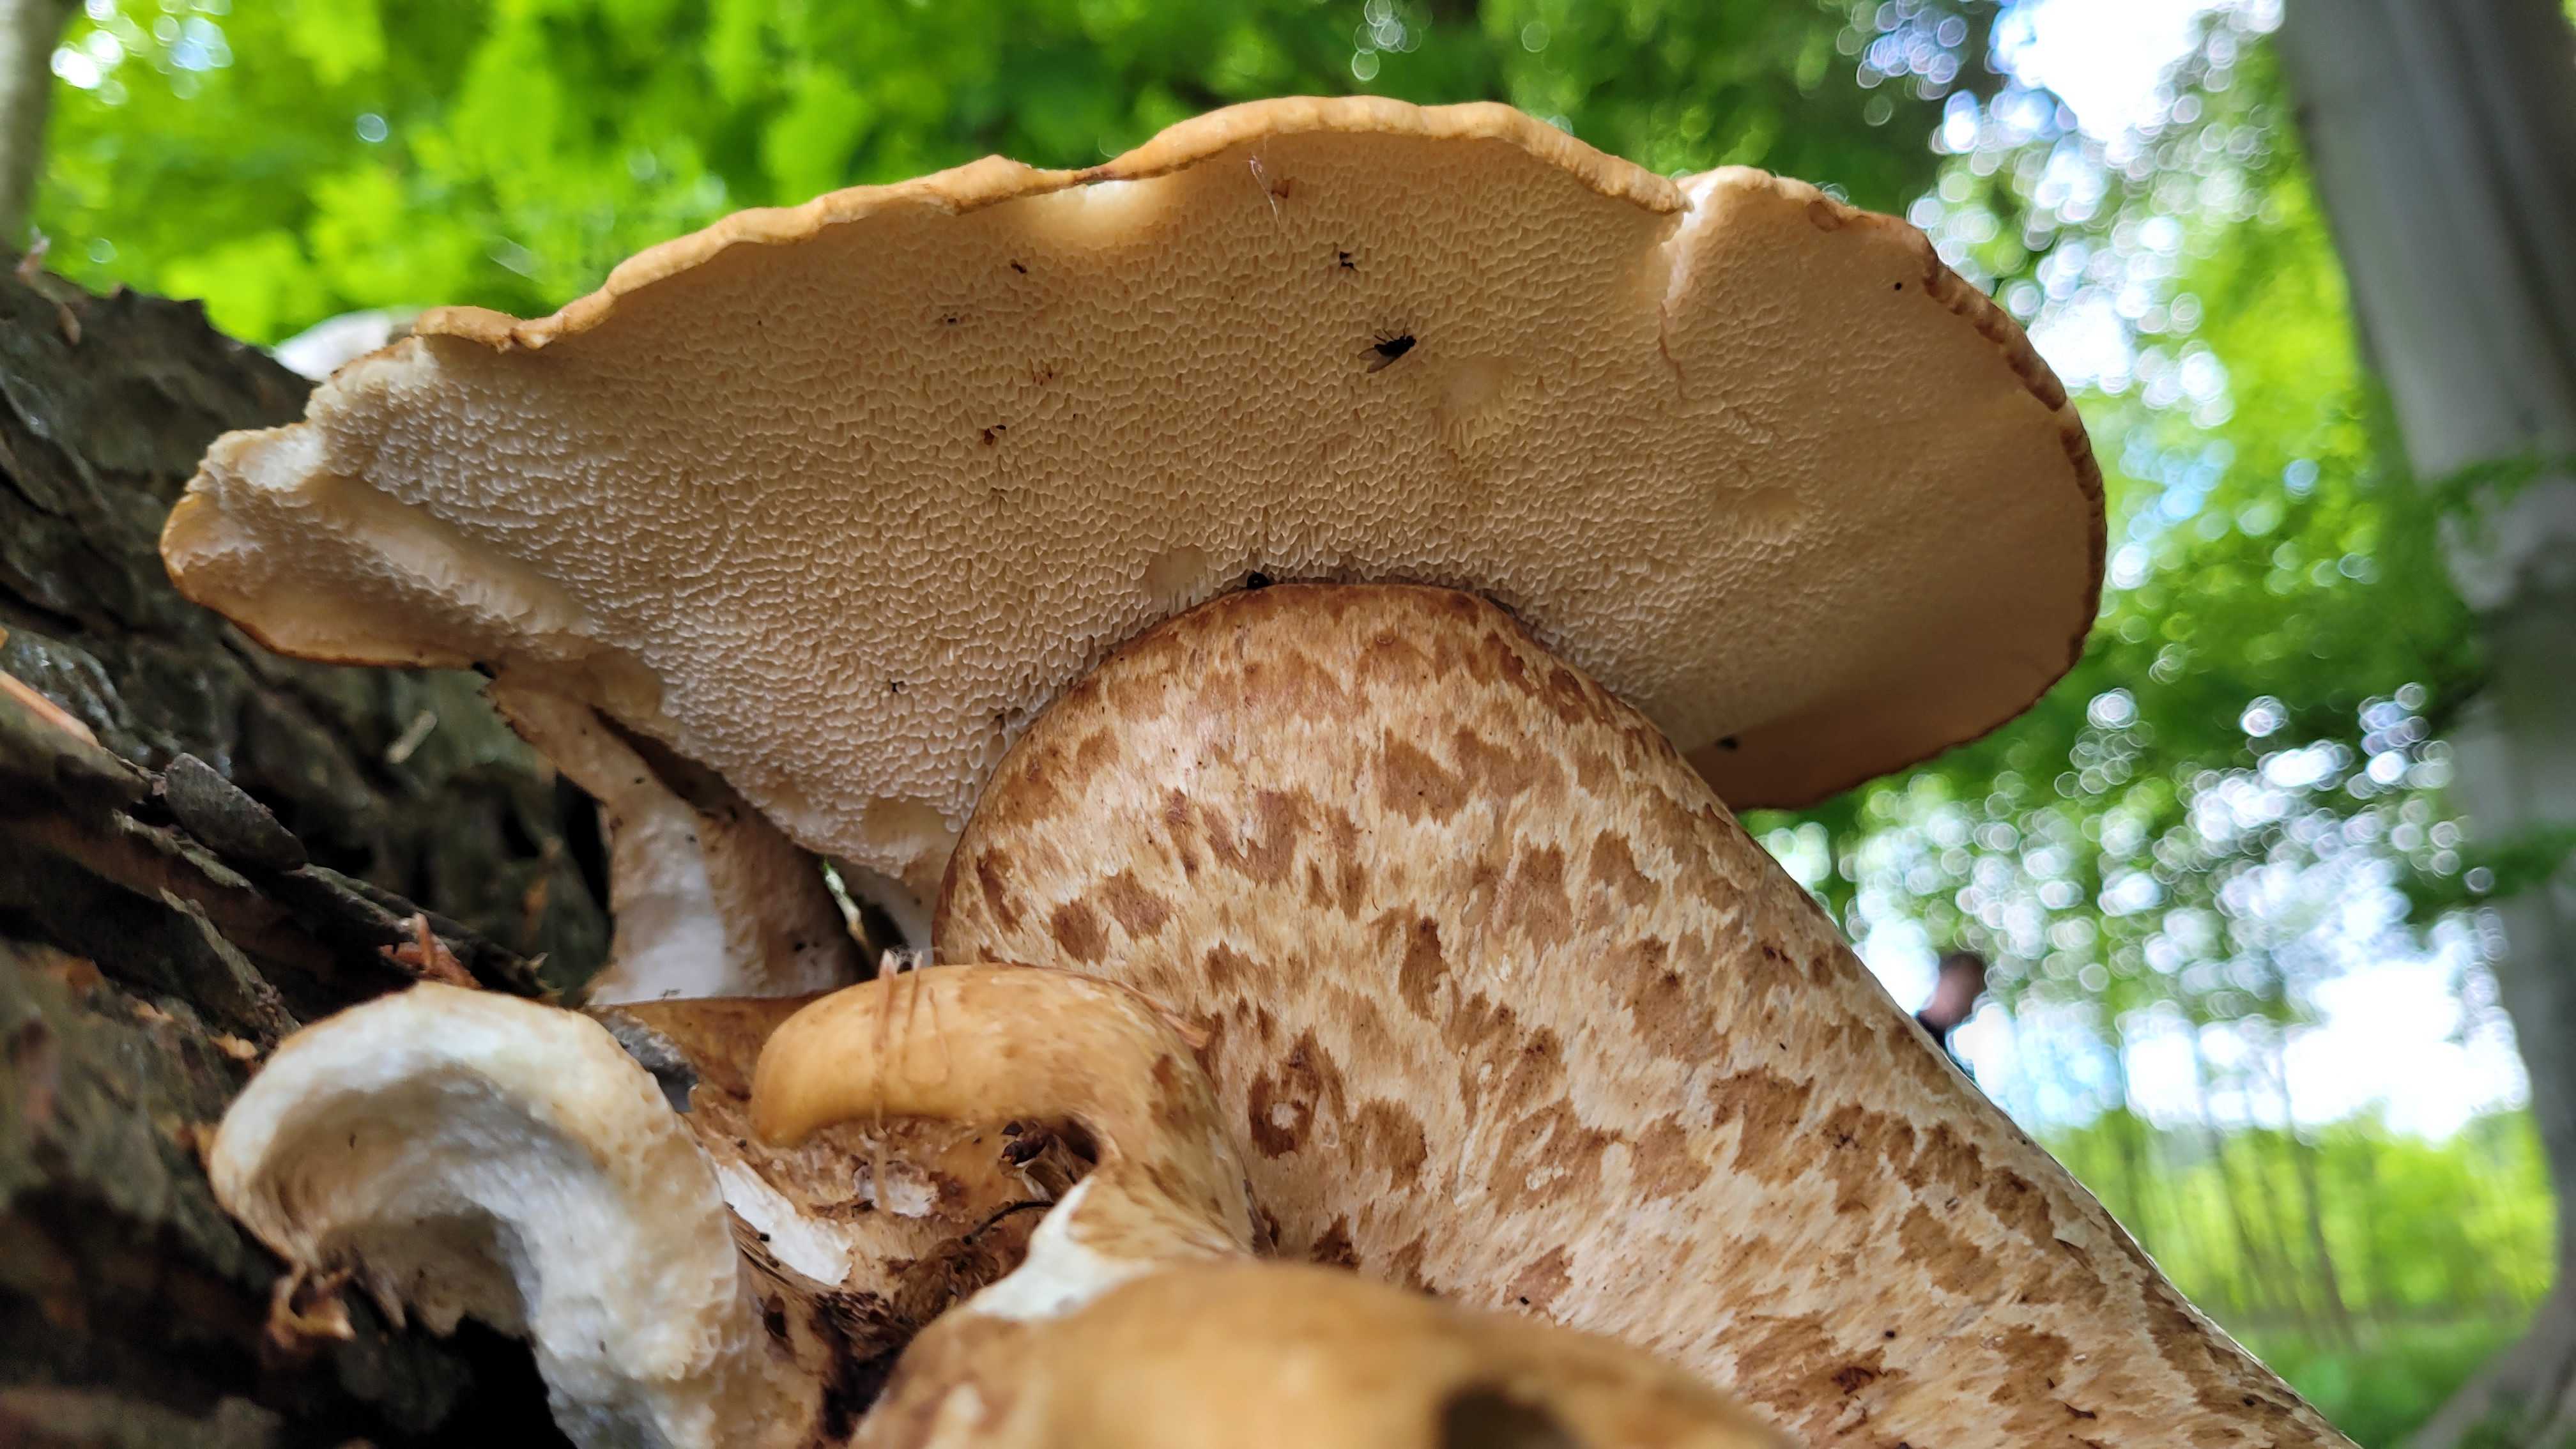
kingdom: Fungi
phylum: Basidiomycota
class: Agaricomycetes
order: Polyporales
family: Polyporaceae
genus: Cerioporus
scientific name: Cerioporus squamosus
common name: skællet stilkporesvamp
